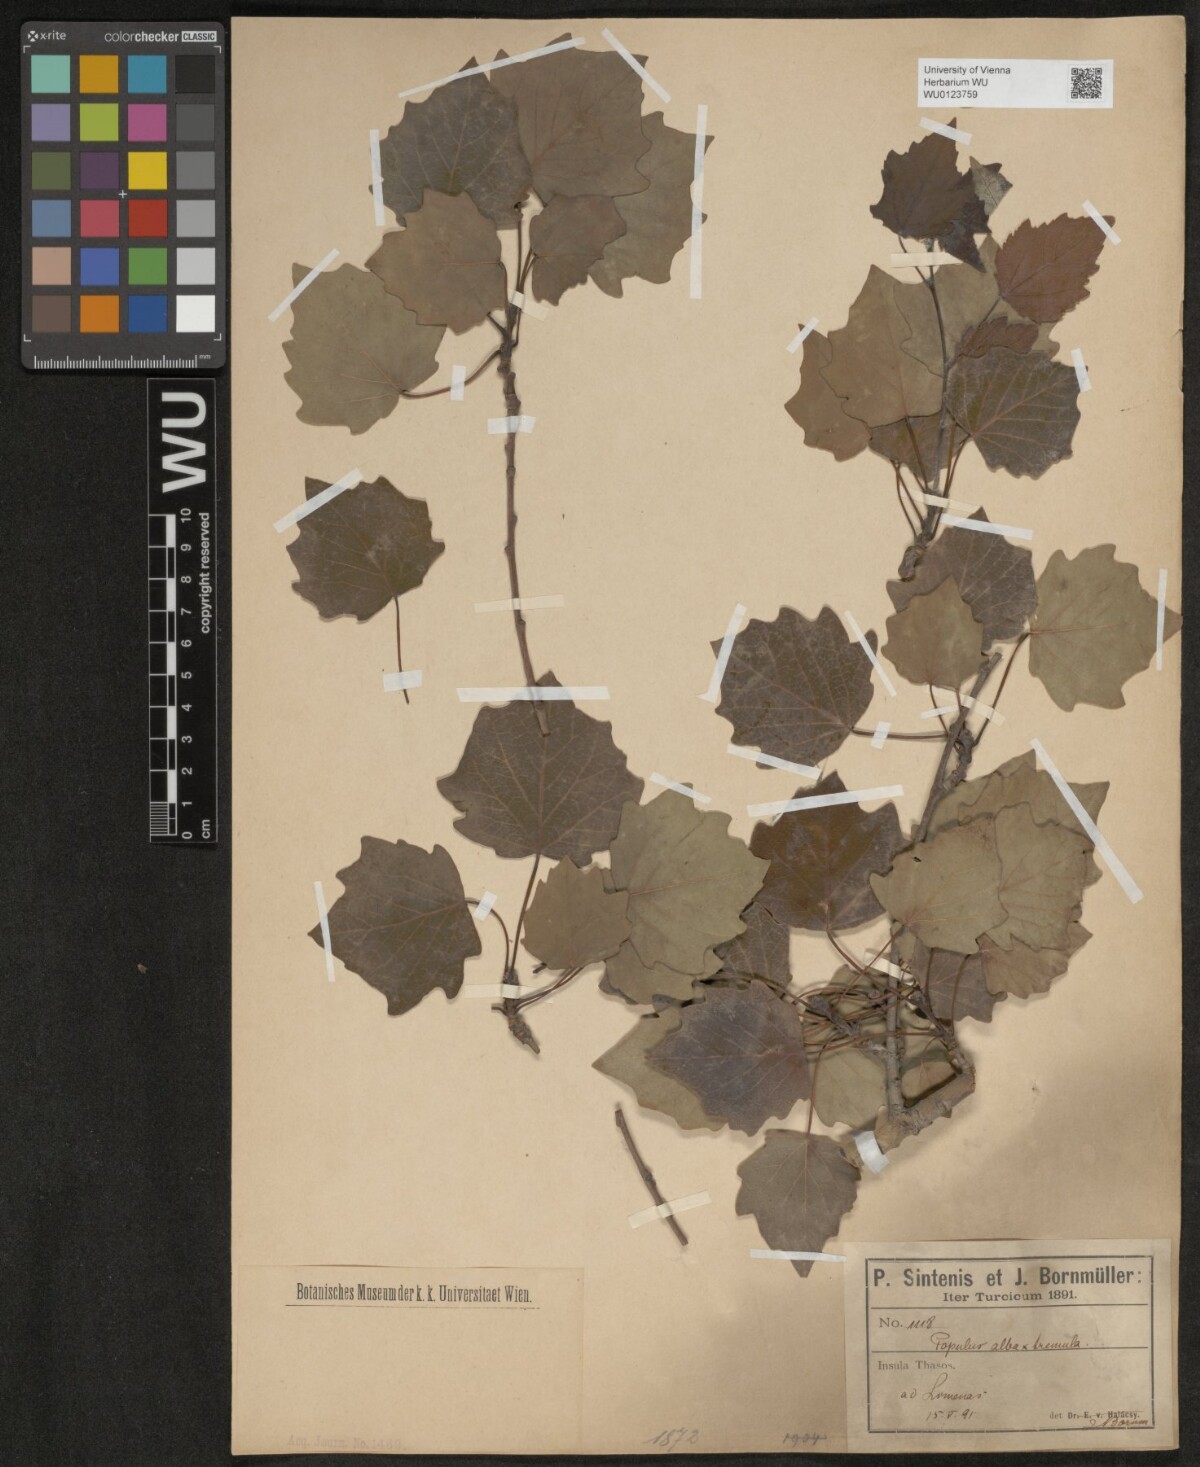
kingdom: Plantae
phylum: Tracheophyta
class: Magnoliopsida
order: Malpighiales
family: Salicaceae
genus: Populus
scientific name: Populus alba
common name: White poplar
